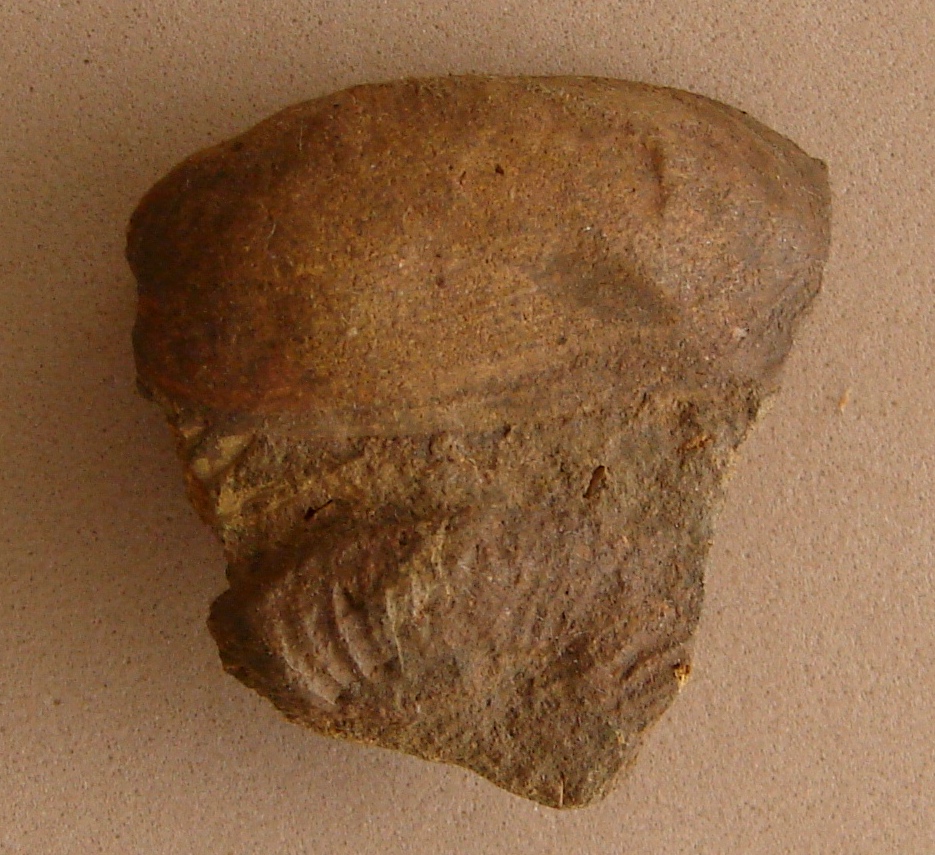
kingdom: Animalia
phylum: Mollusca
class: Bivalvia
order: Mytilida
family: Mytilidae
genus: Modiola
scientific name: Modiola minuta
